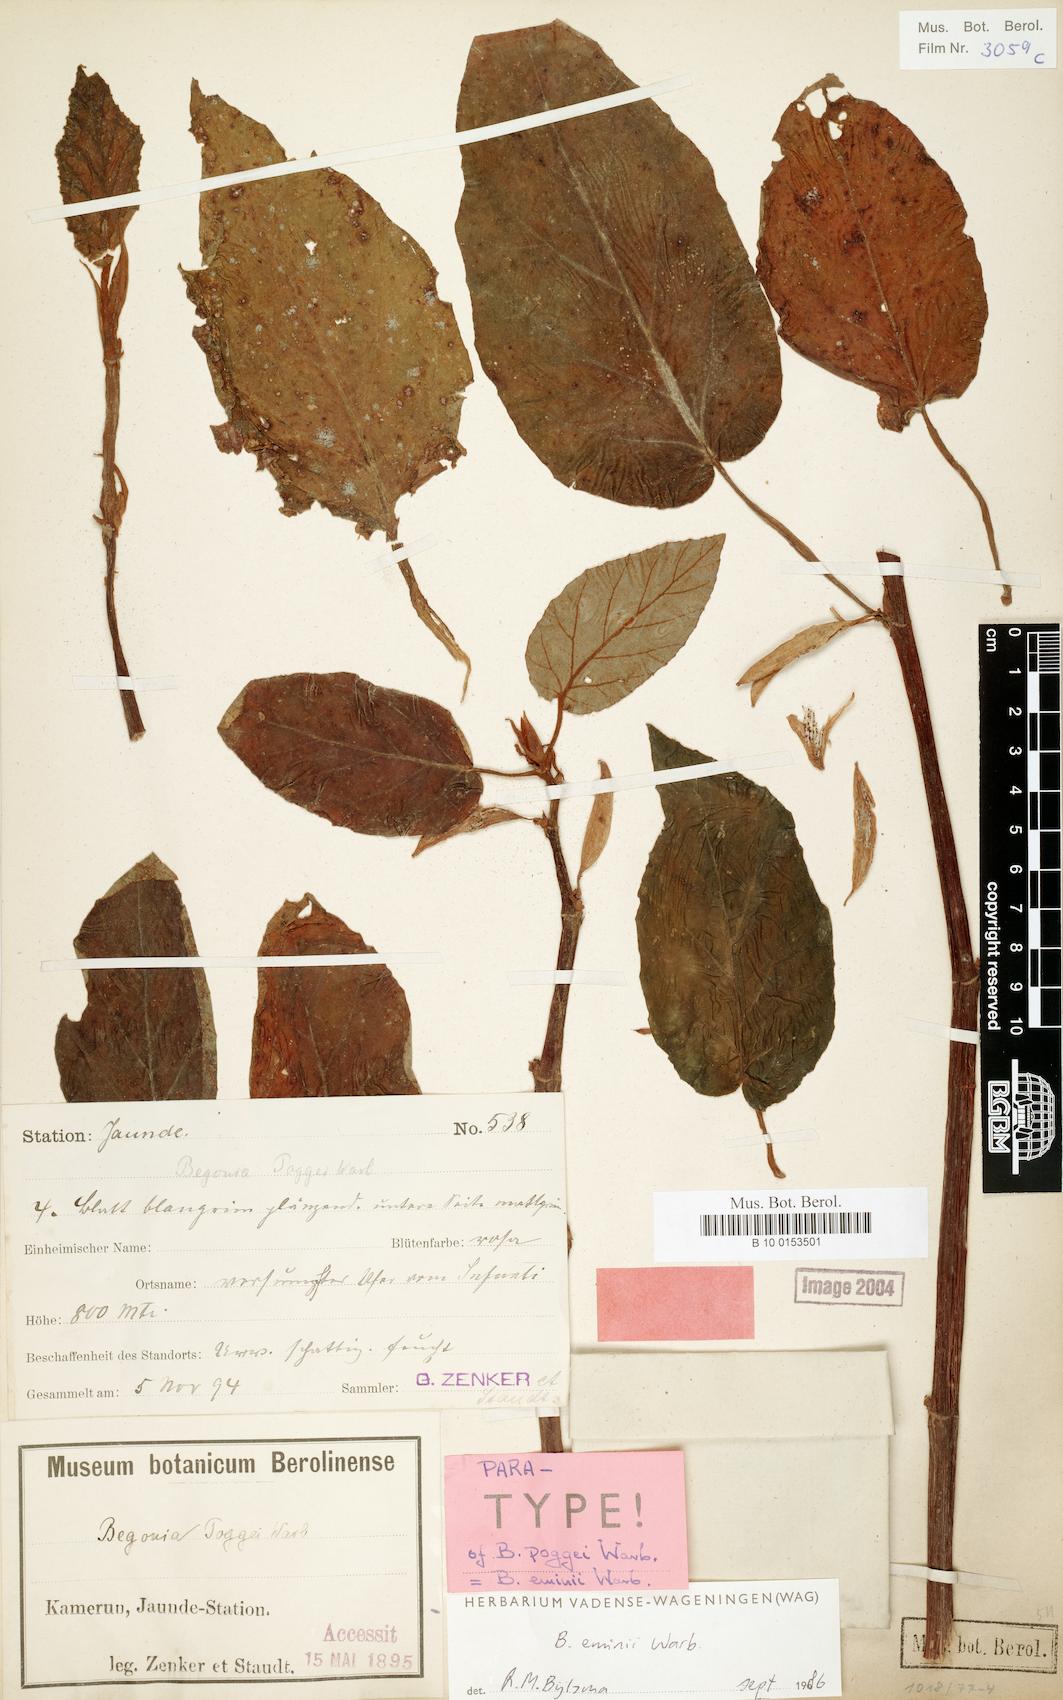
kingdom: Plantae
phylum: Tracheophyta
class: Magnoliopsida
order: Cucurbitales
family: Begoniaceae
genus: Begonia
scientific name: Begonia eminii
